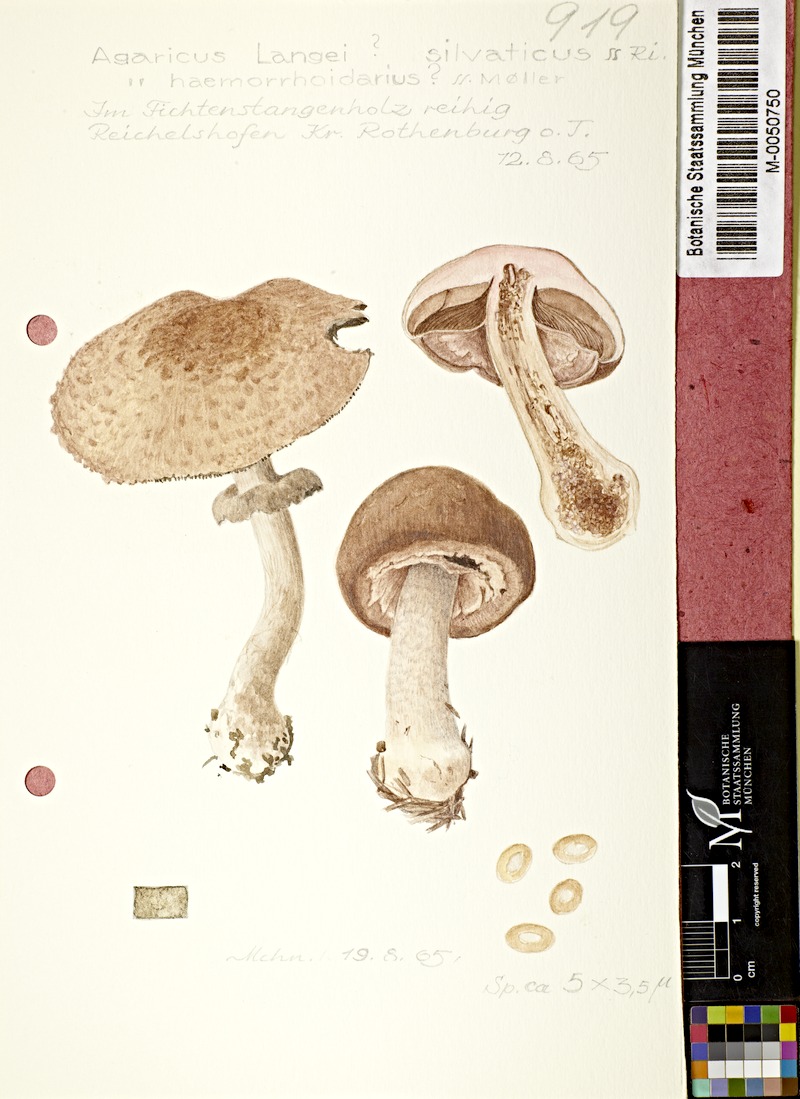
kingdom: Fungi
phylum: Basidiomycota
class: Agaricomycetes
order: Agaricales
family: Agaricaceae
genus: Agaricus
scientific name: Agaricus langei
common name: Scaly wood mushroom
